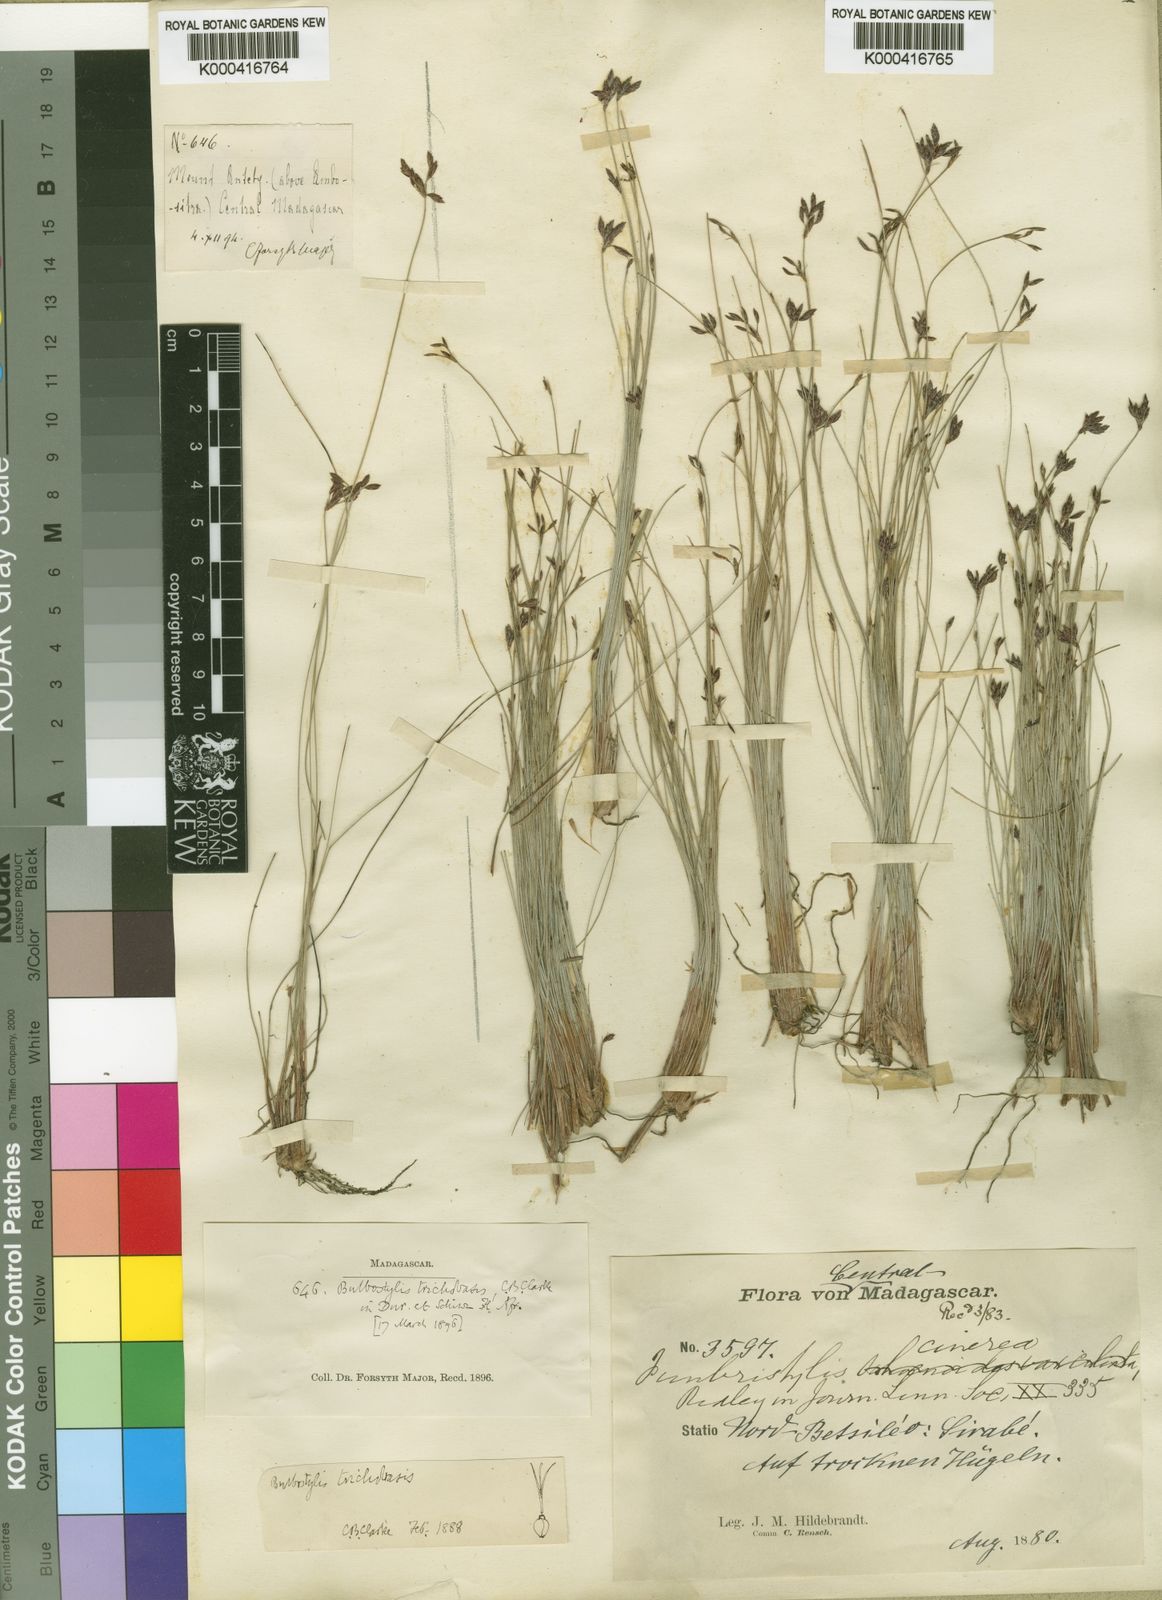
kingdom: Plantae
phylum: Tracheophyta
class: Liliopsida
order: Poales
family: Cyperaceae
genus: Bulbostylis
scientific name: Bulbostylis trichobasis
